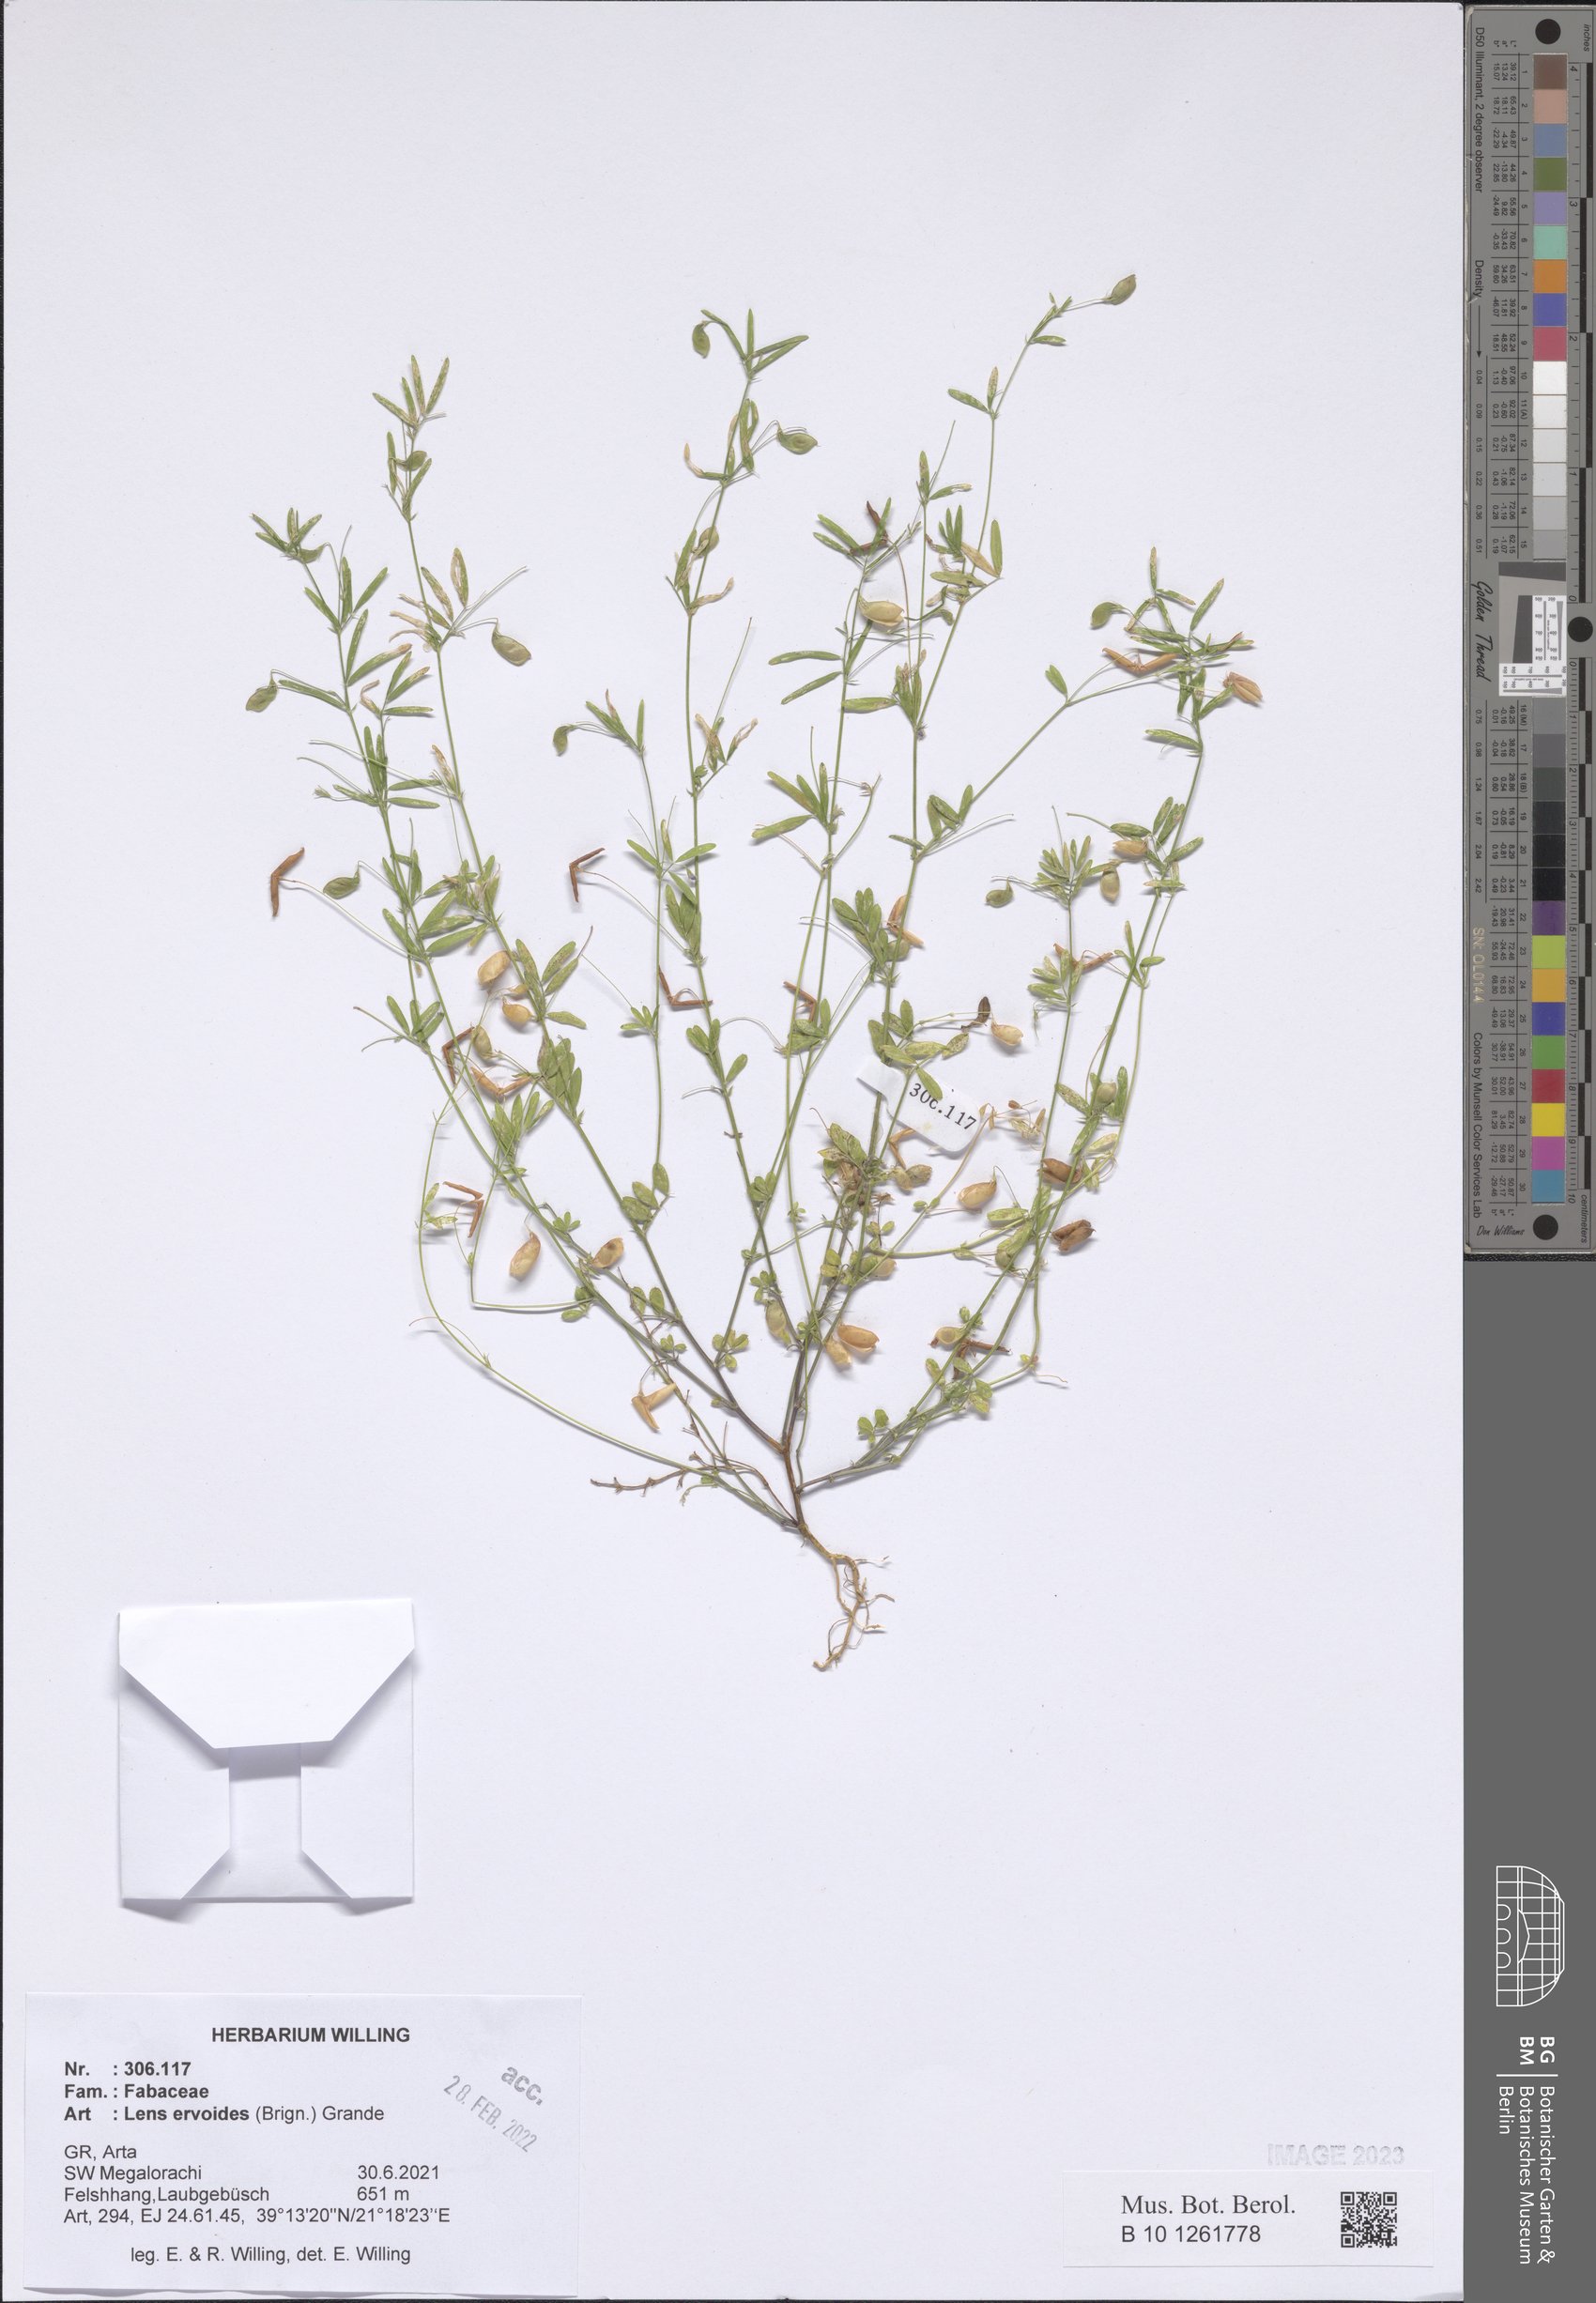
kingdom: Plantae
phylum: Tracheophyta
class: Magnoliopsida
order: Fabales
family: Fabaceae
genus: Vicia
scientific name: Vicia lenticula
